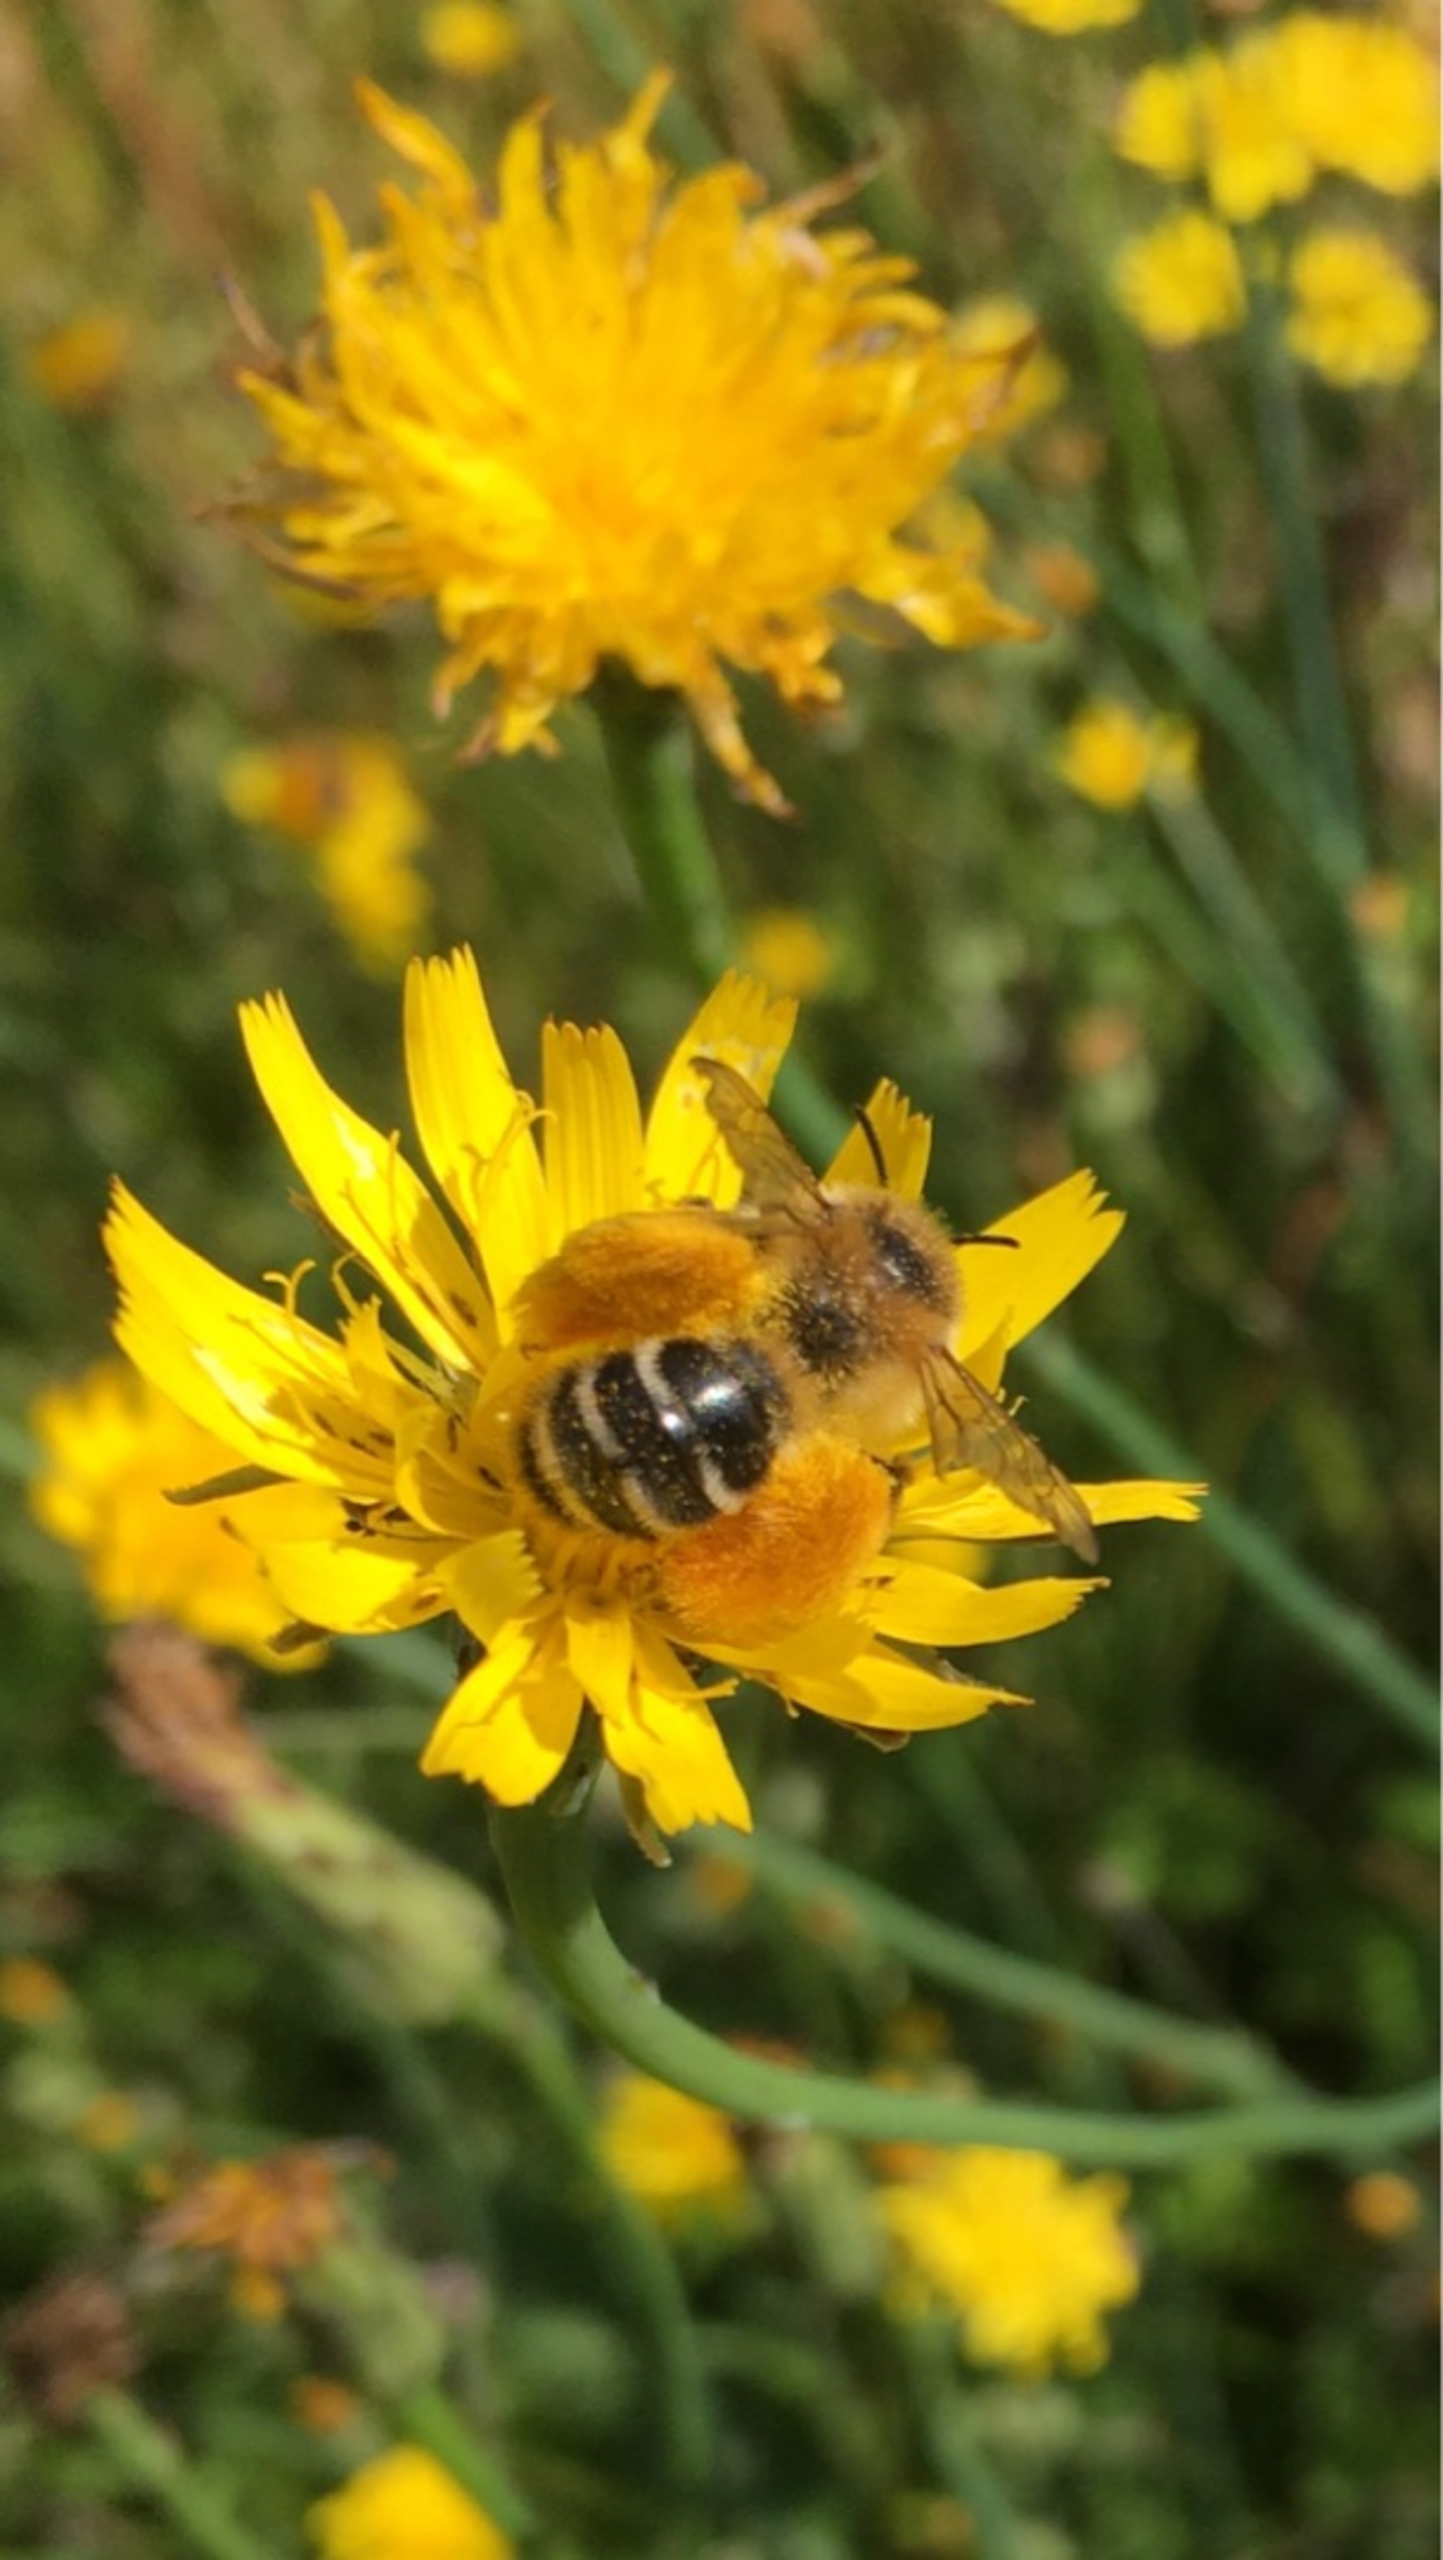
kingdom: Animalia
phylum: Arthropoda
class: Insecta
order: Hymenoptera
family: Melittidae
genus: Dasypoda
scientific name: Dasypoda hirtipes
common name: Pragtbuksebi
